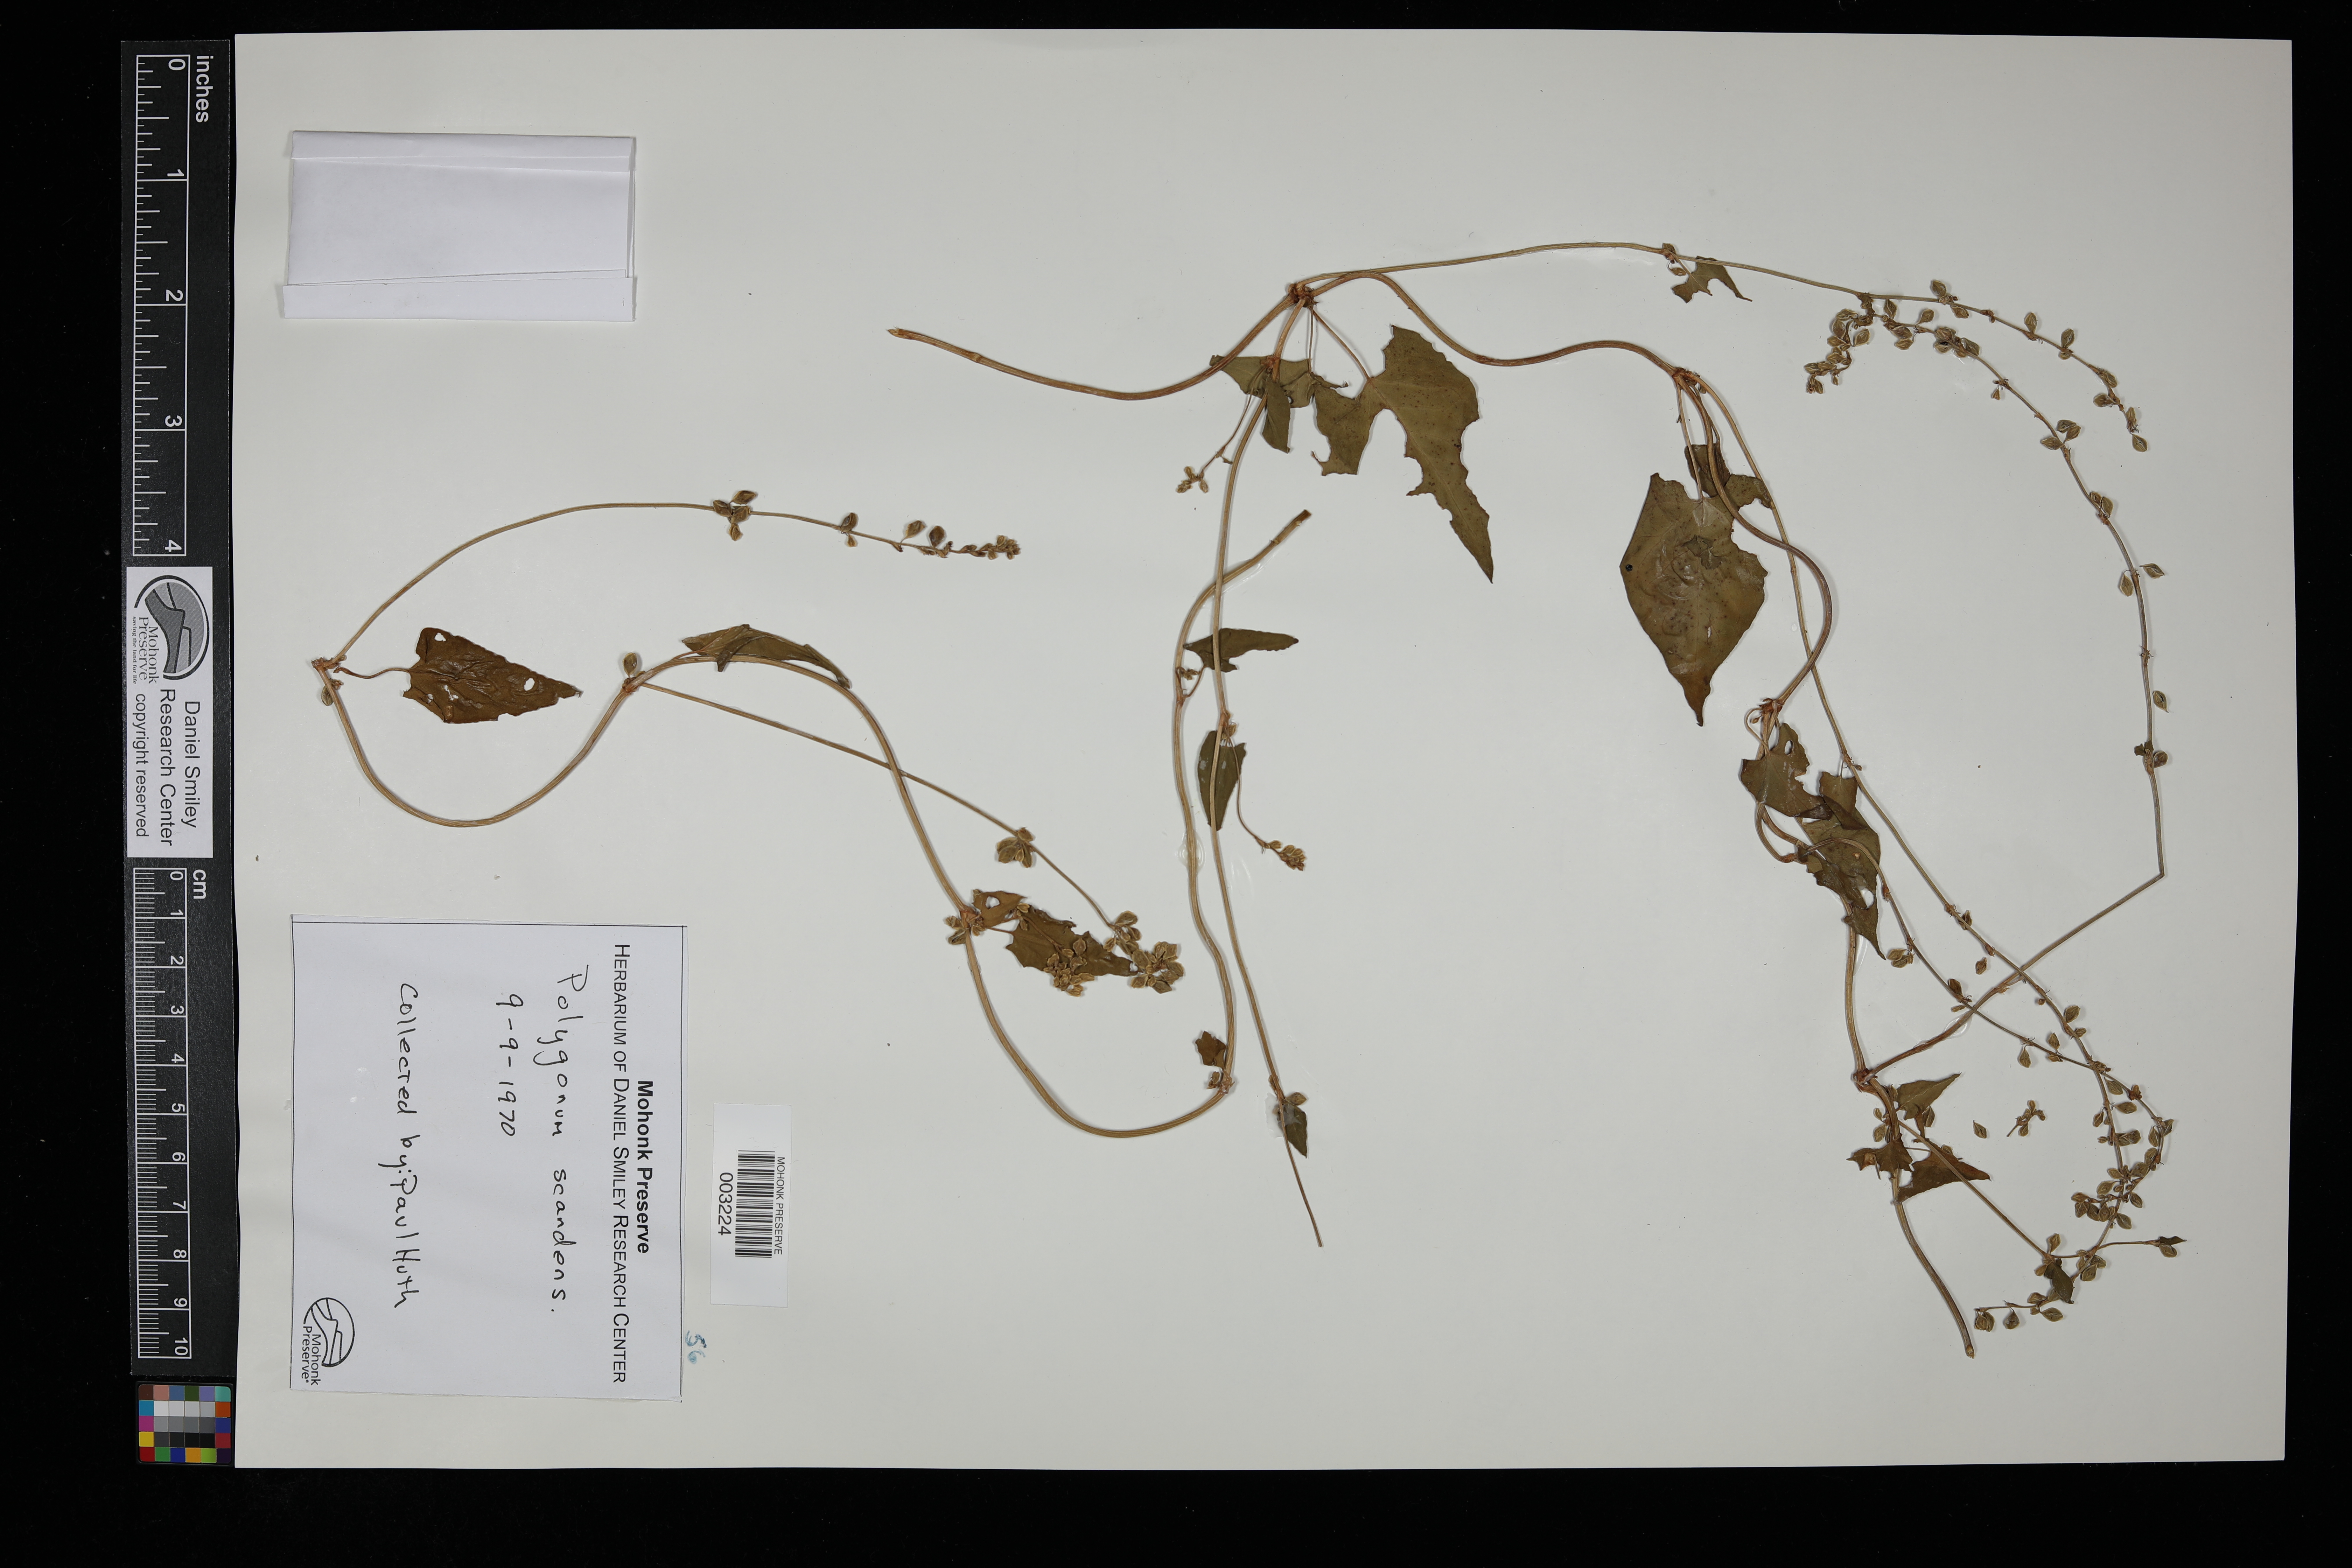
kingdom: Plantae
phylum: Tracheophyta
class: Magnoliopsida
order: Caryophyllales
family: Polygonaceae
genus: Fallopia
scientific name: Fallopia scandens
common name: Climbing false buckwheat
